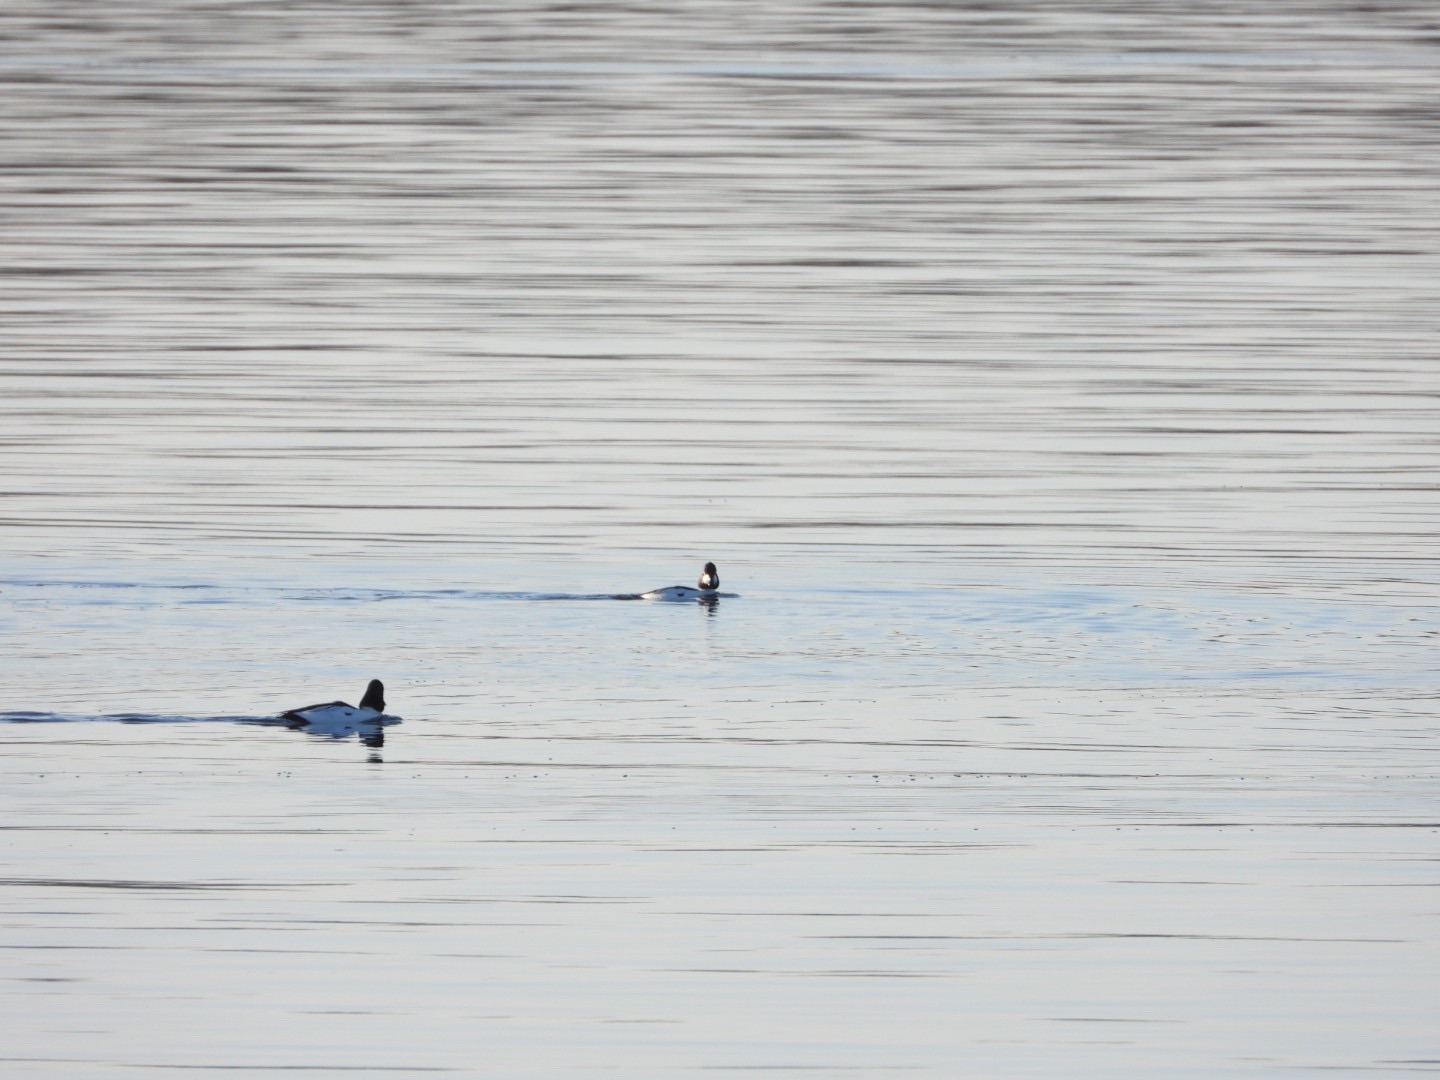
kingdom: Animalia
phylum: Chordata
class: Aves
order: Anseriformes
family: Anatidae
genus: Bucephala
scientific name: Bucephala clangula
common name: Hvinand
